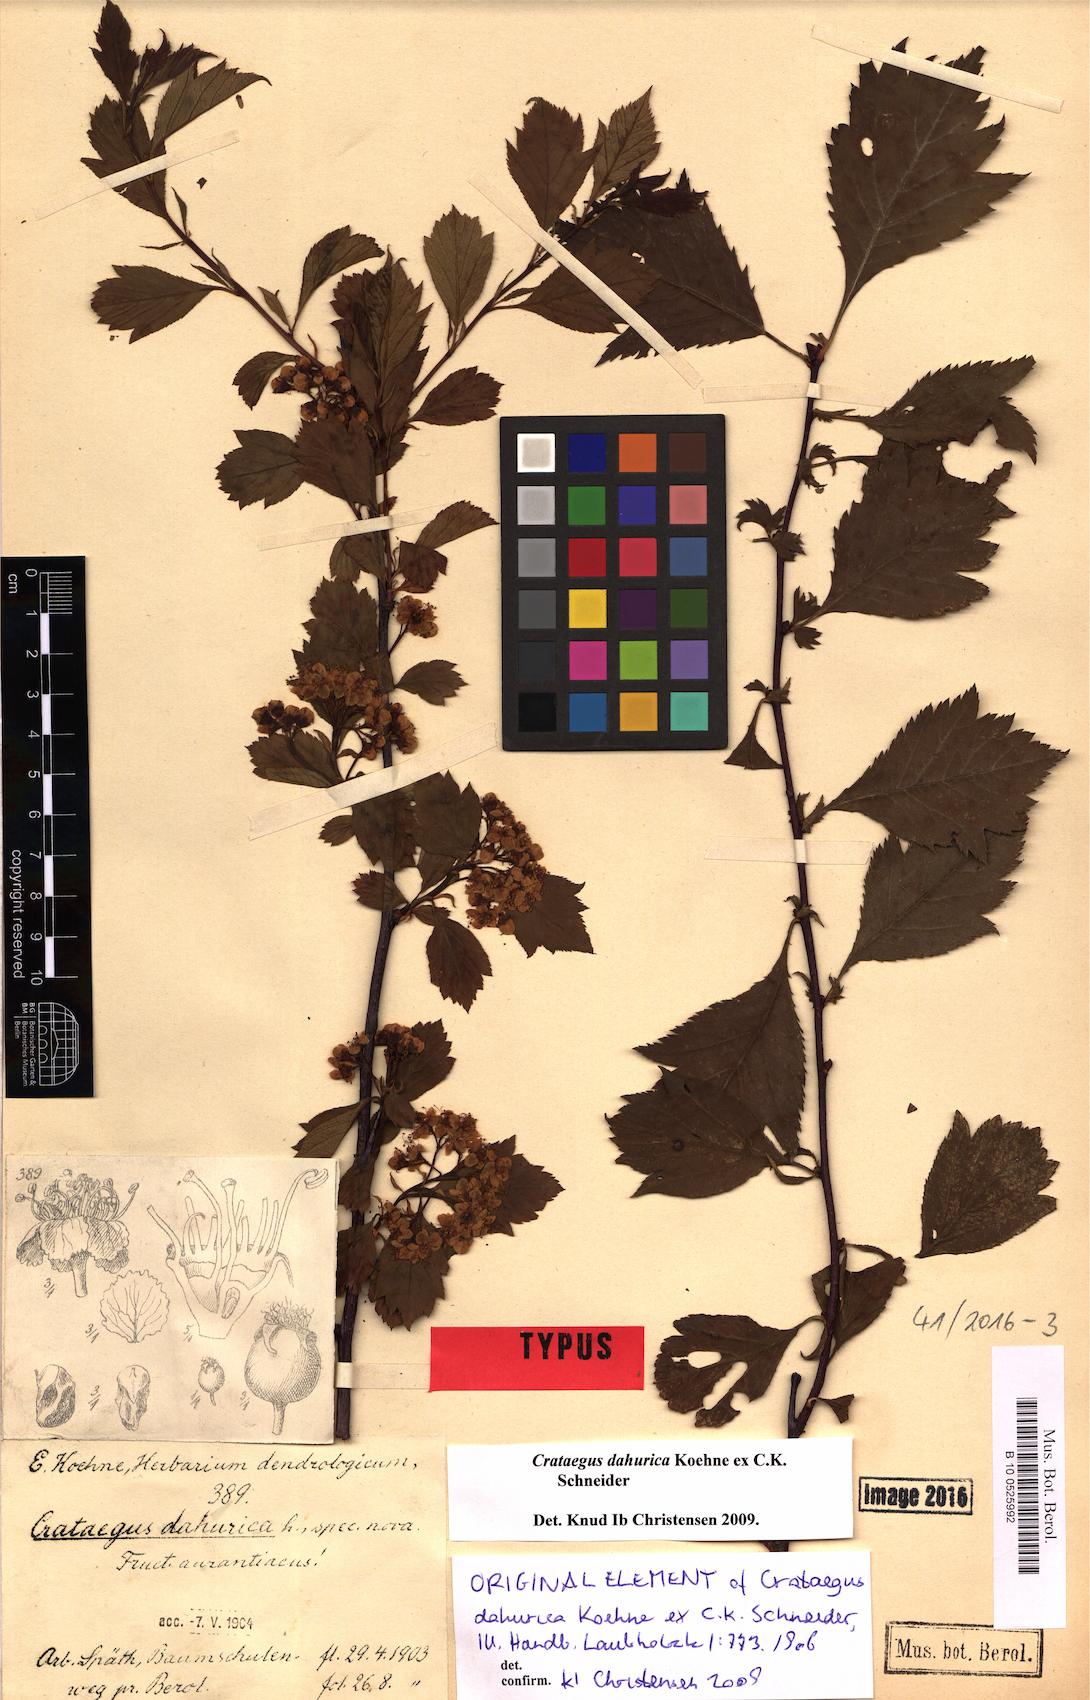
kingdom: Plantae
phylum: Tracheophyta
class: Magnoliopsida
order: Rosales
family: Rosaceae
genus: Crataegus
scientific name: Crataegus dahurica
